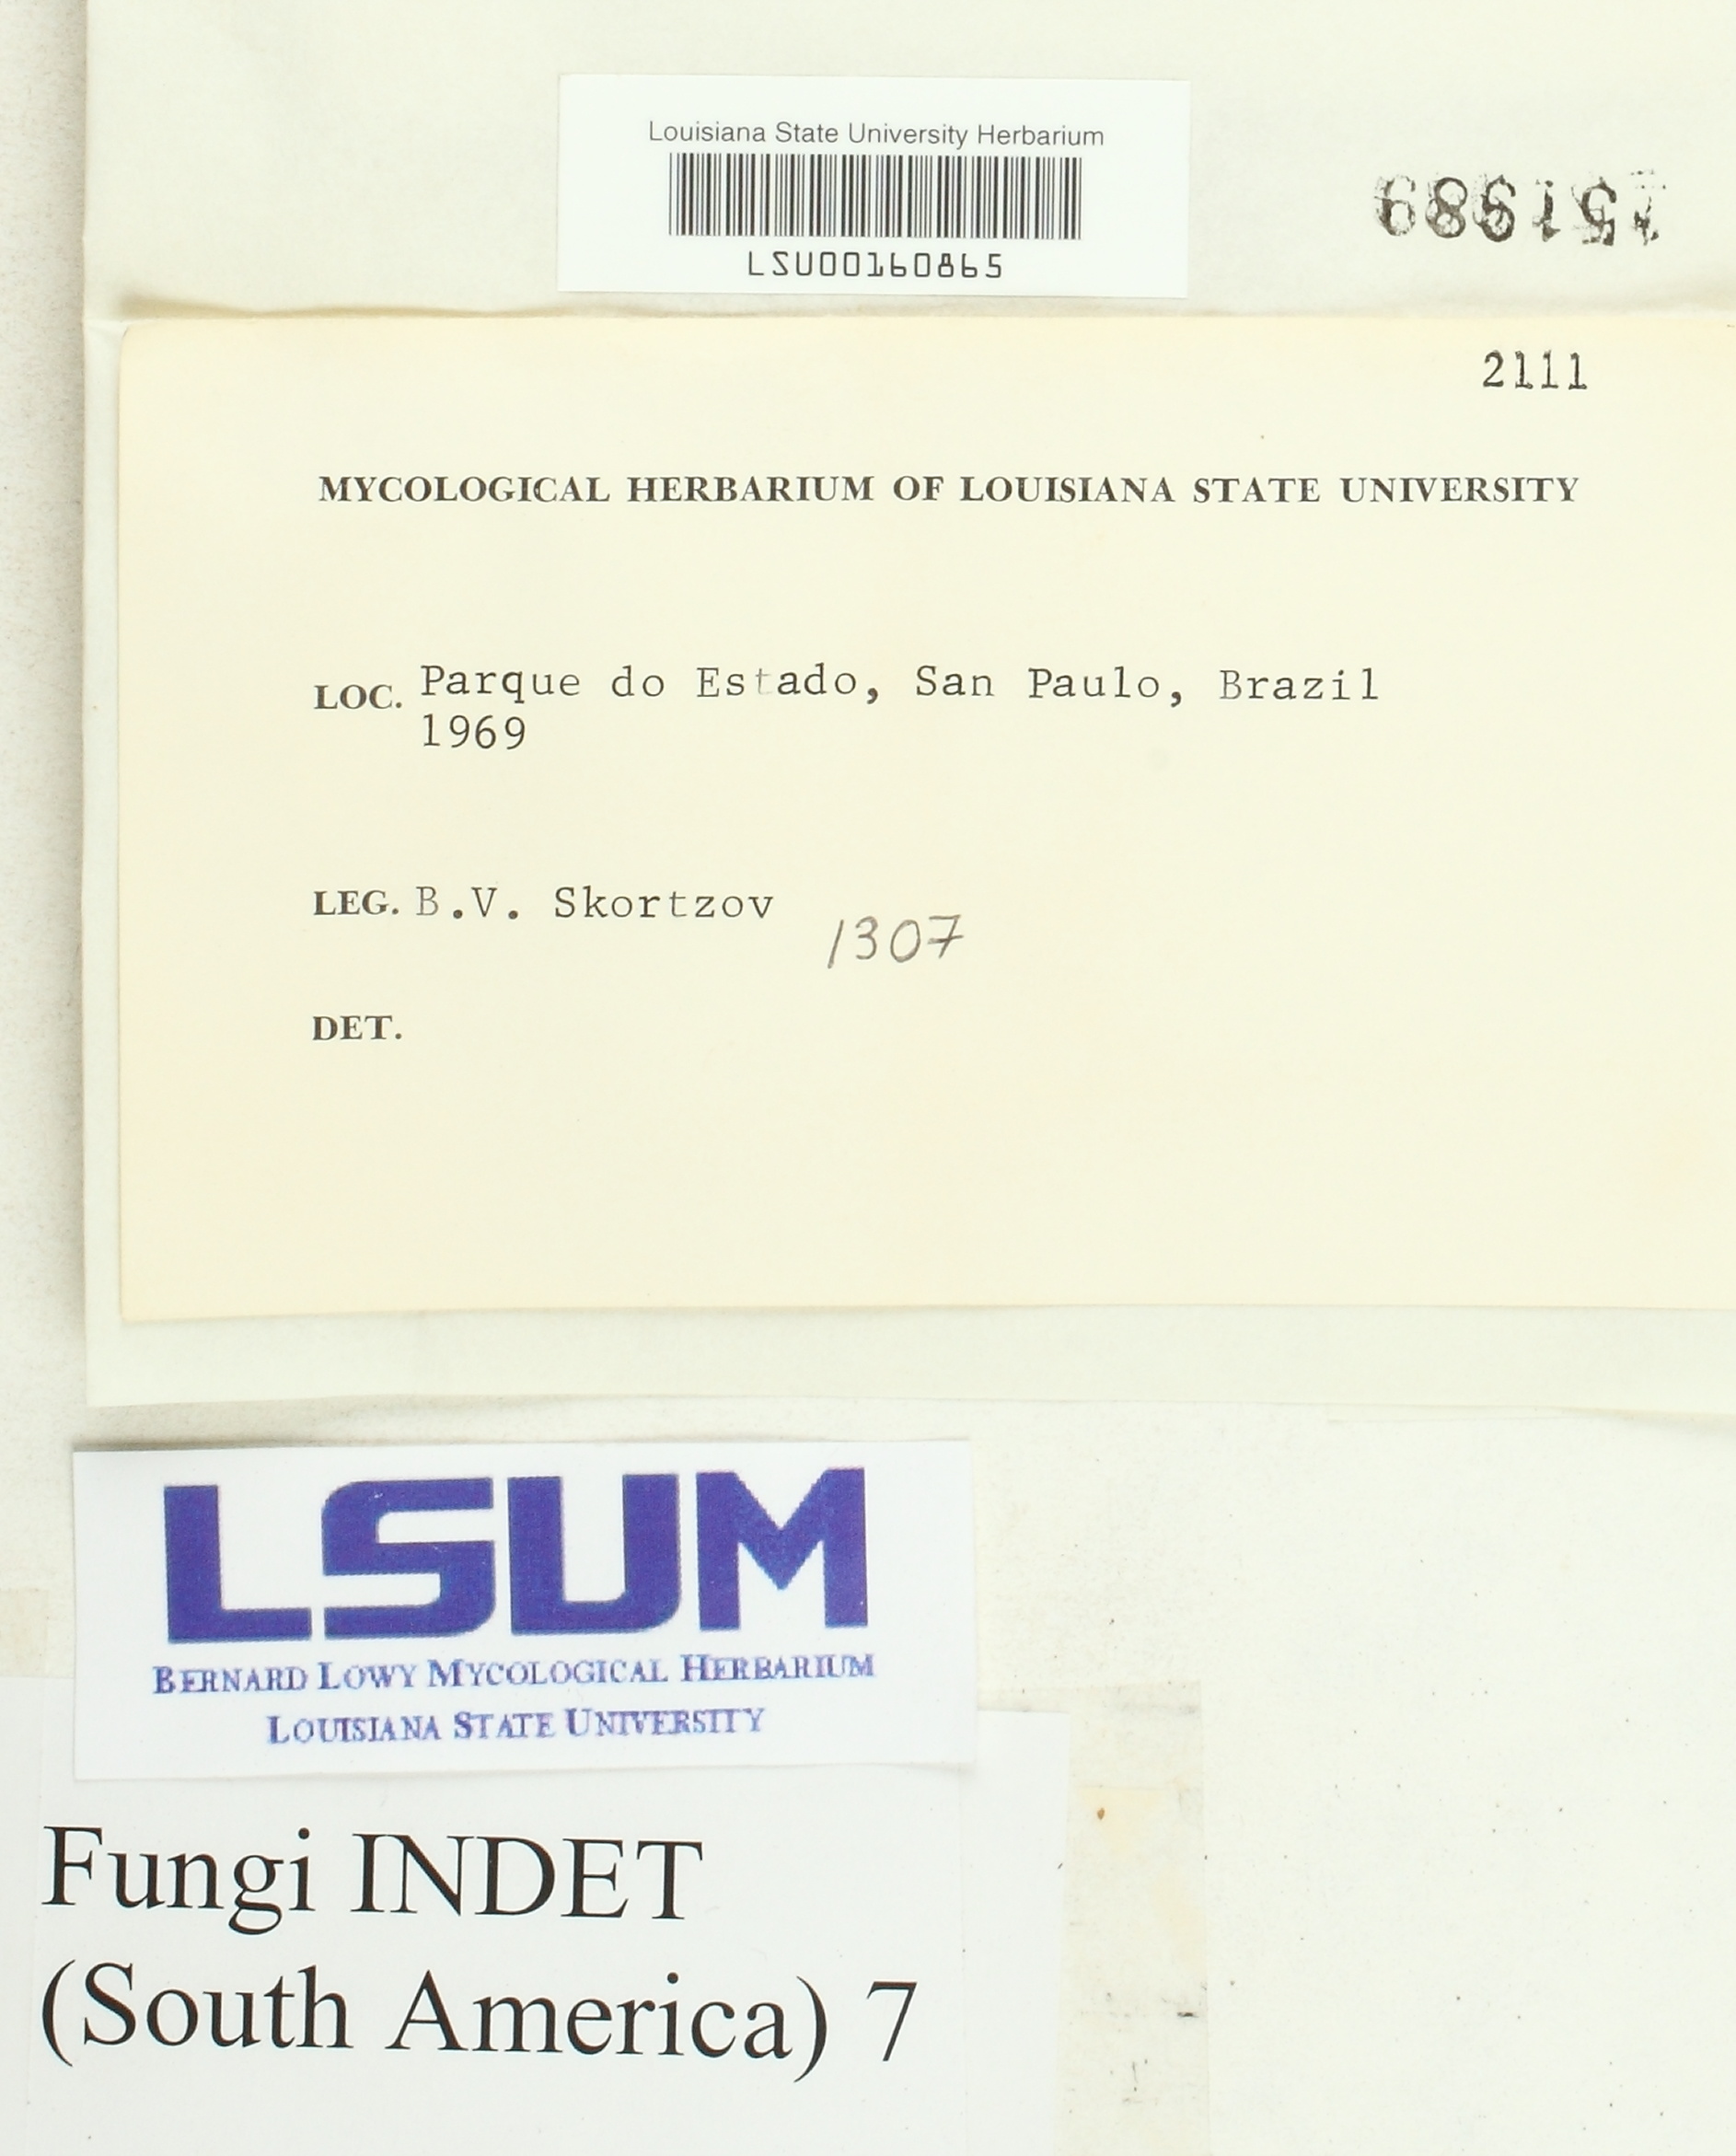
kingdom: Fungi
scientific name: Fungi
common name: Fungi
